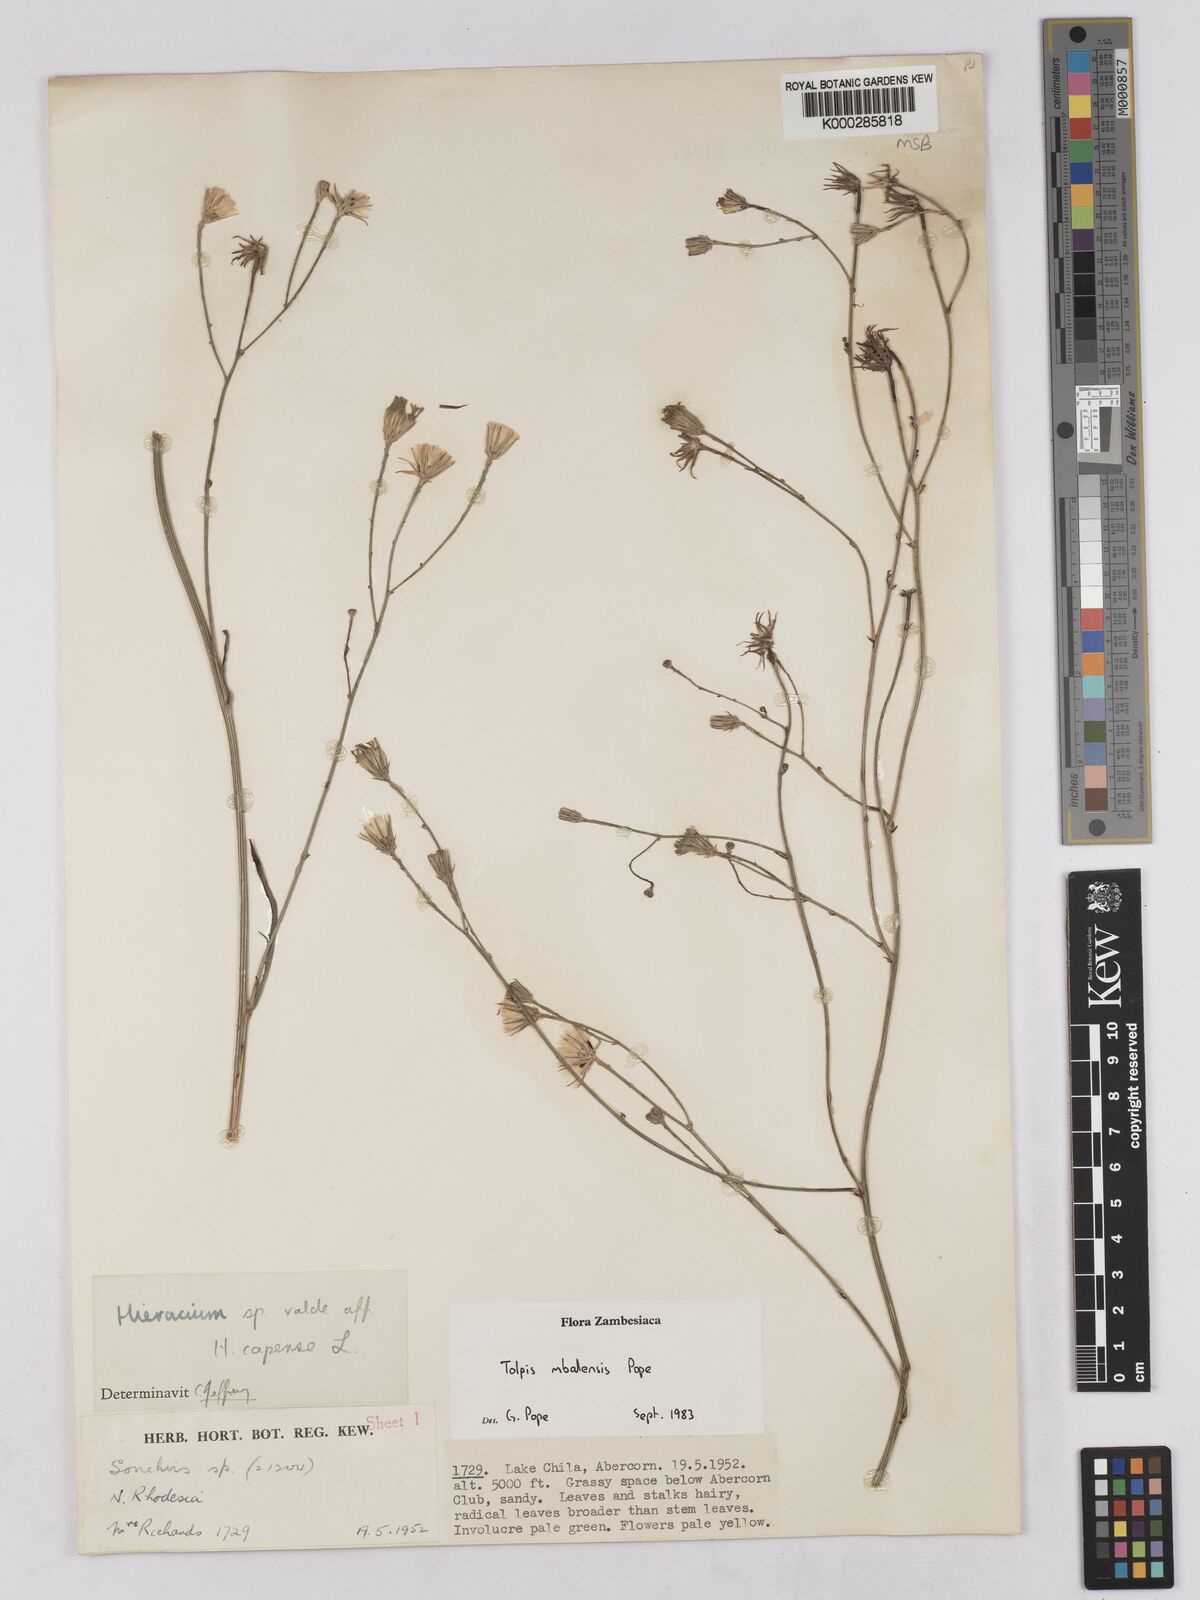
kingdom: Plantae
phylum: Tracheophyta
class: Magnoliopsida
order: Asterales
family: Asteraceae
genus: Tolpis
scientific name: Tolpis mbalensis
